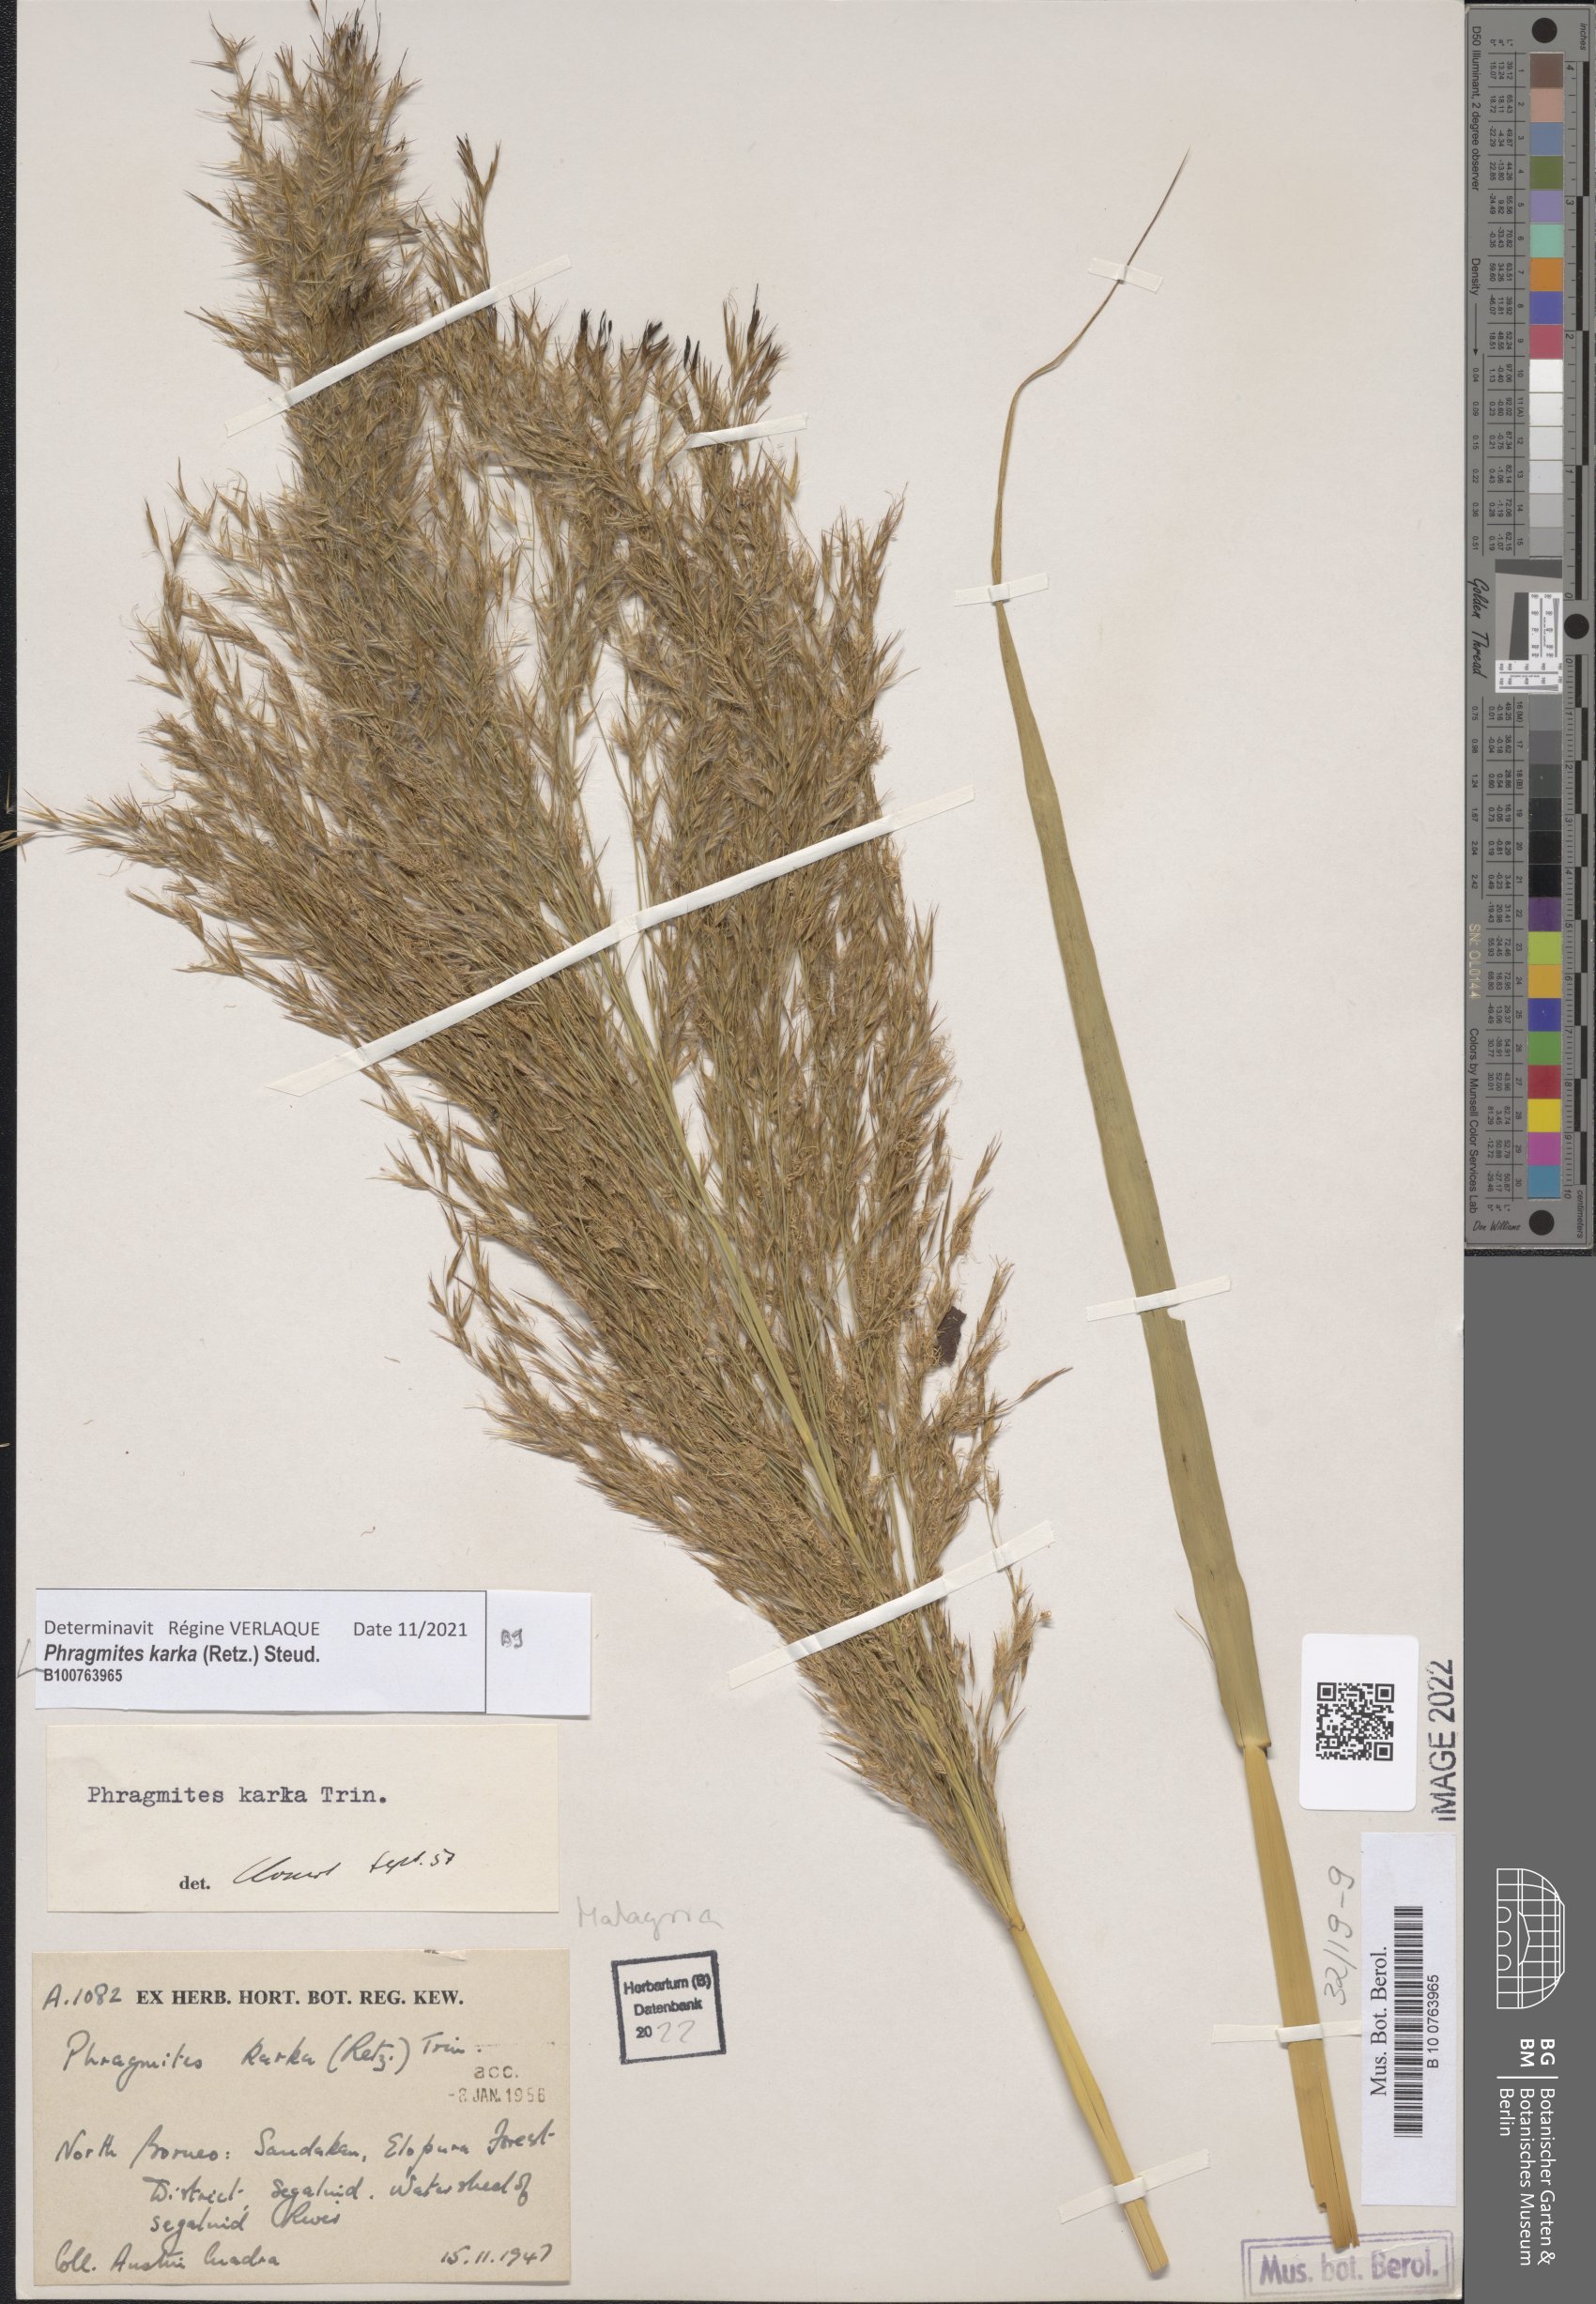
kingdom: Plantae
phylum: Tracheophyta
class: Liliopsida
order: Poales
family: Poaceae
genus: Phragmites
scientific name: Phragmites karka
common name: Tropical reed
